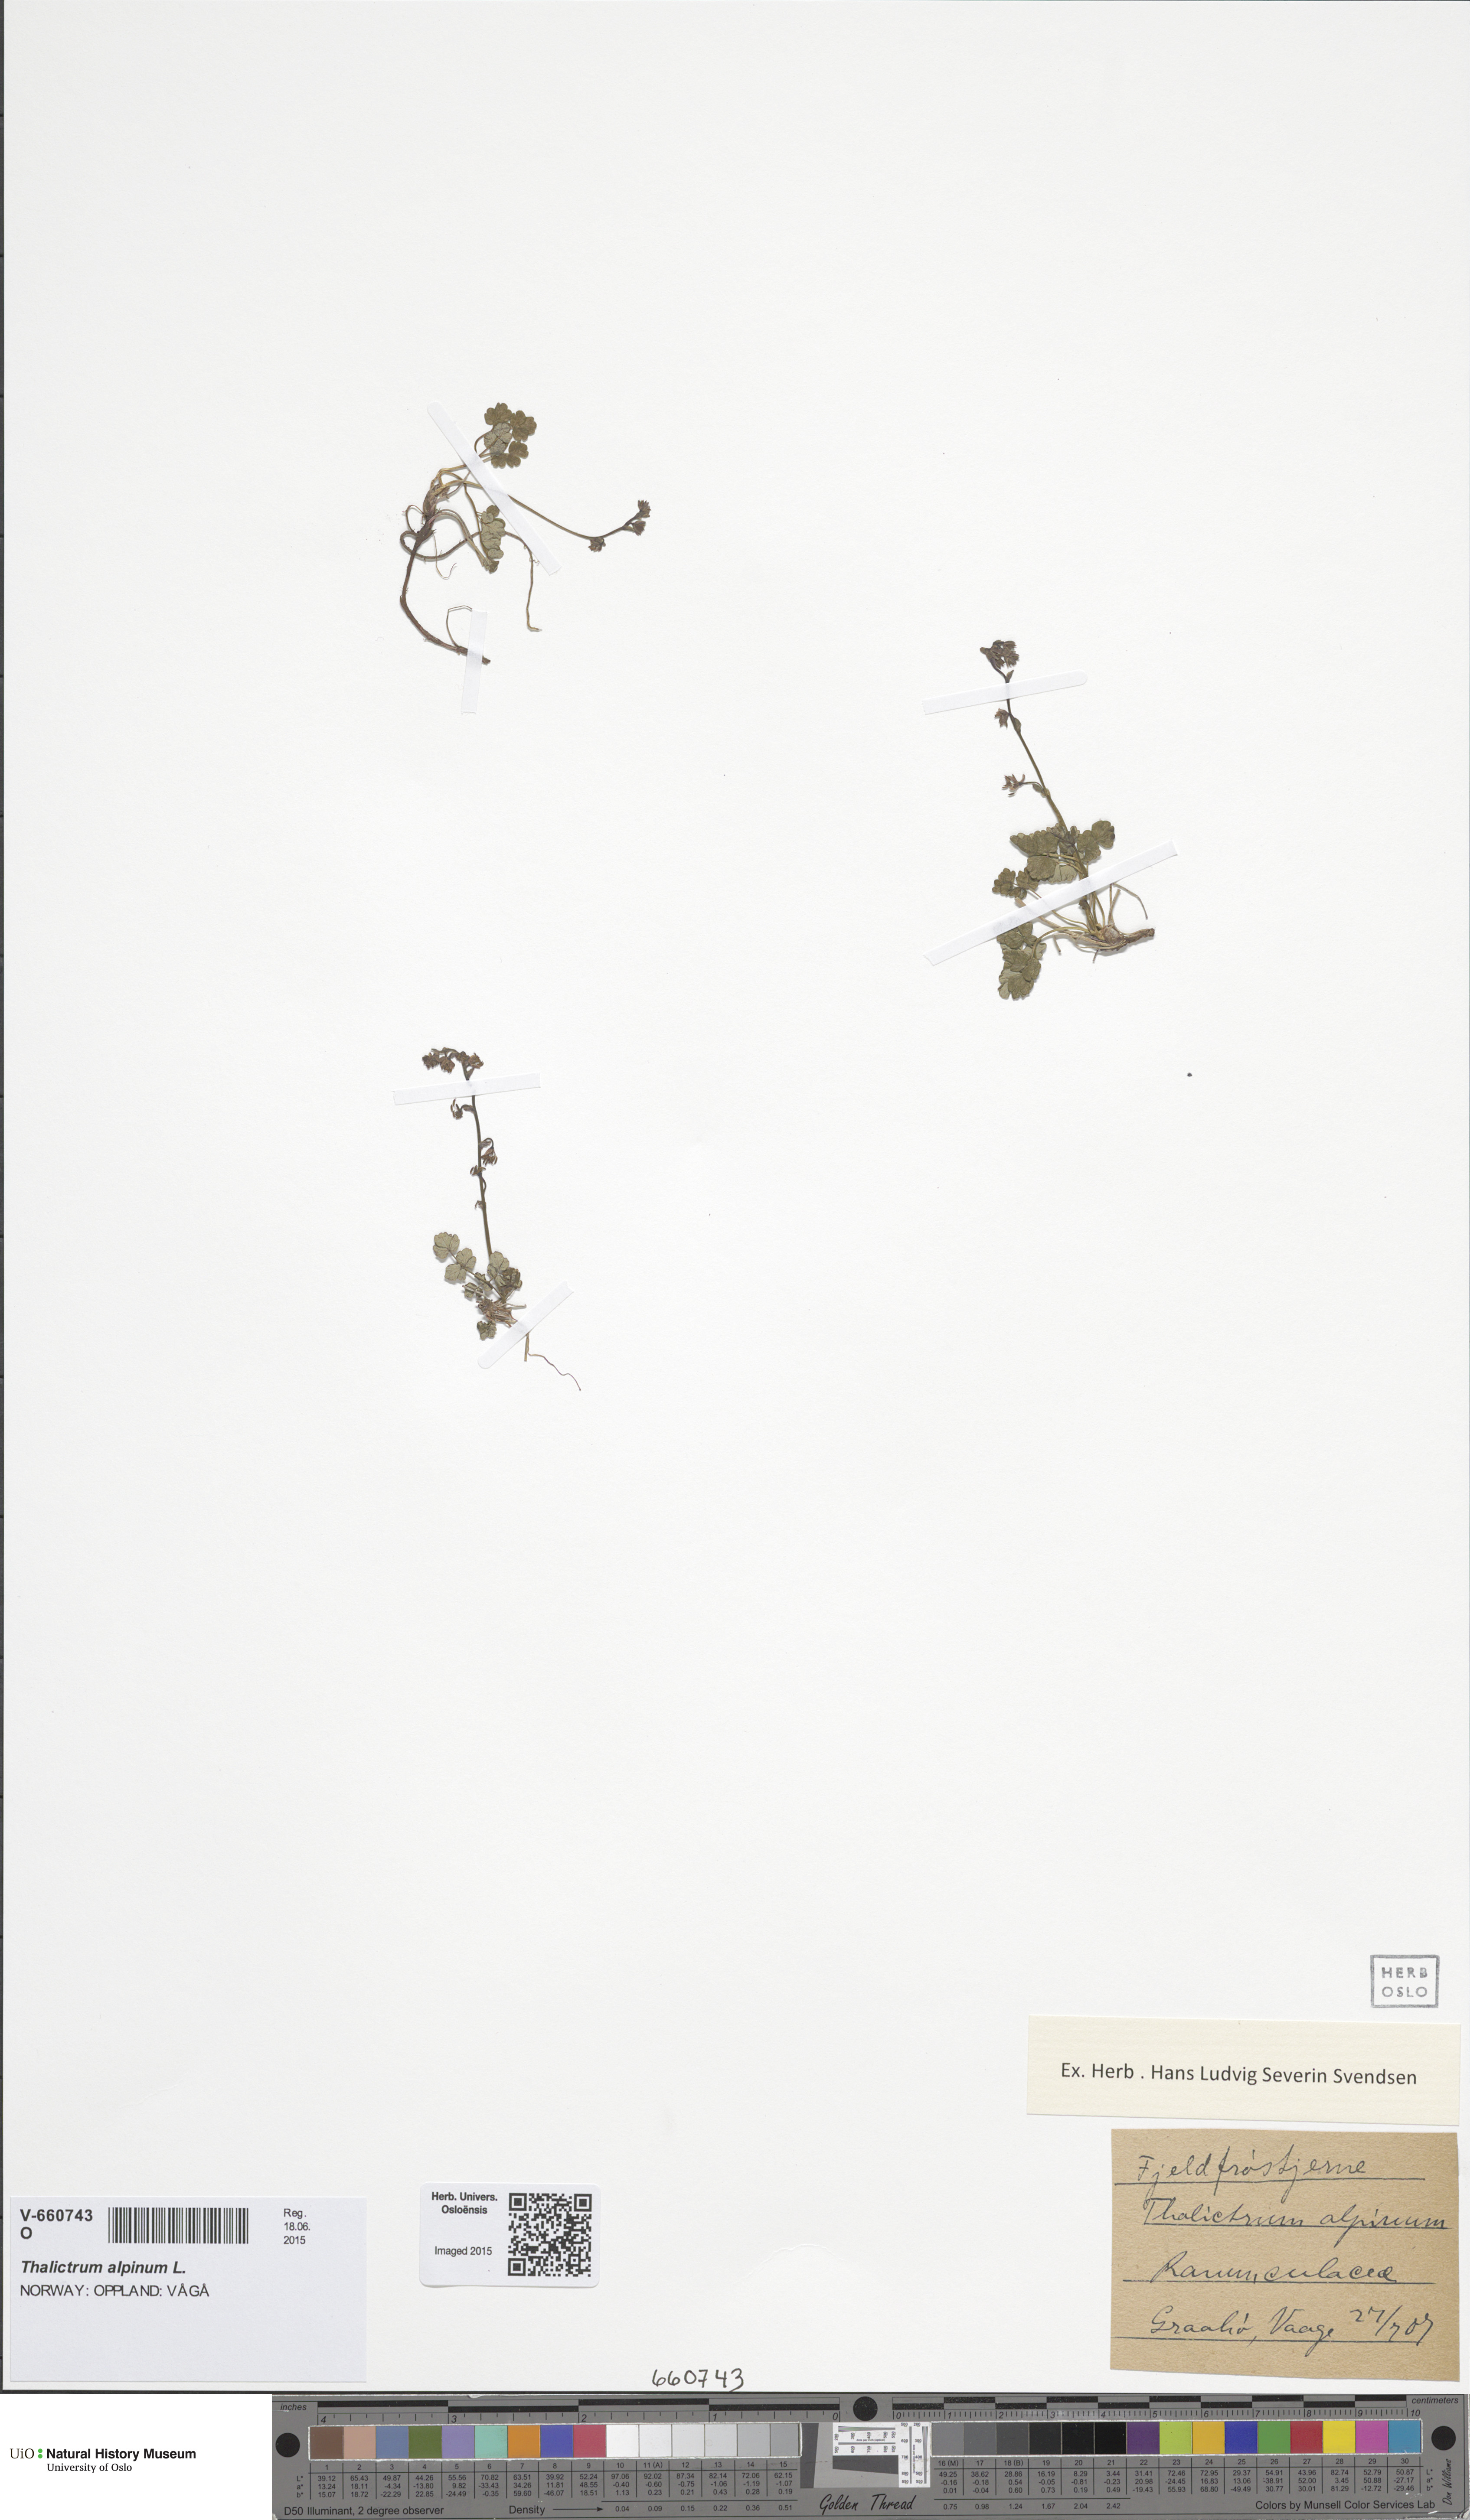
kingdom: Plantae
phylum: Tracheophyta
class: Magnoliopsida
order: Ranunculales
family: Ranunculaceae
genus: Thalictrum
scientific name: Thalictrum alpinum
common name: Alpine meadow-rue
